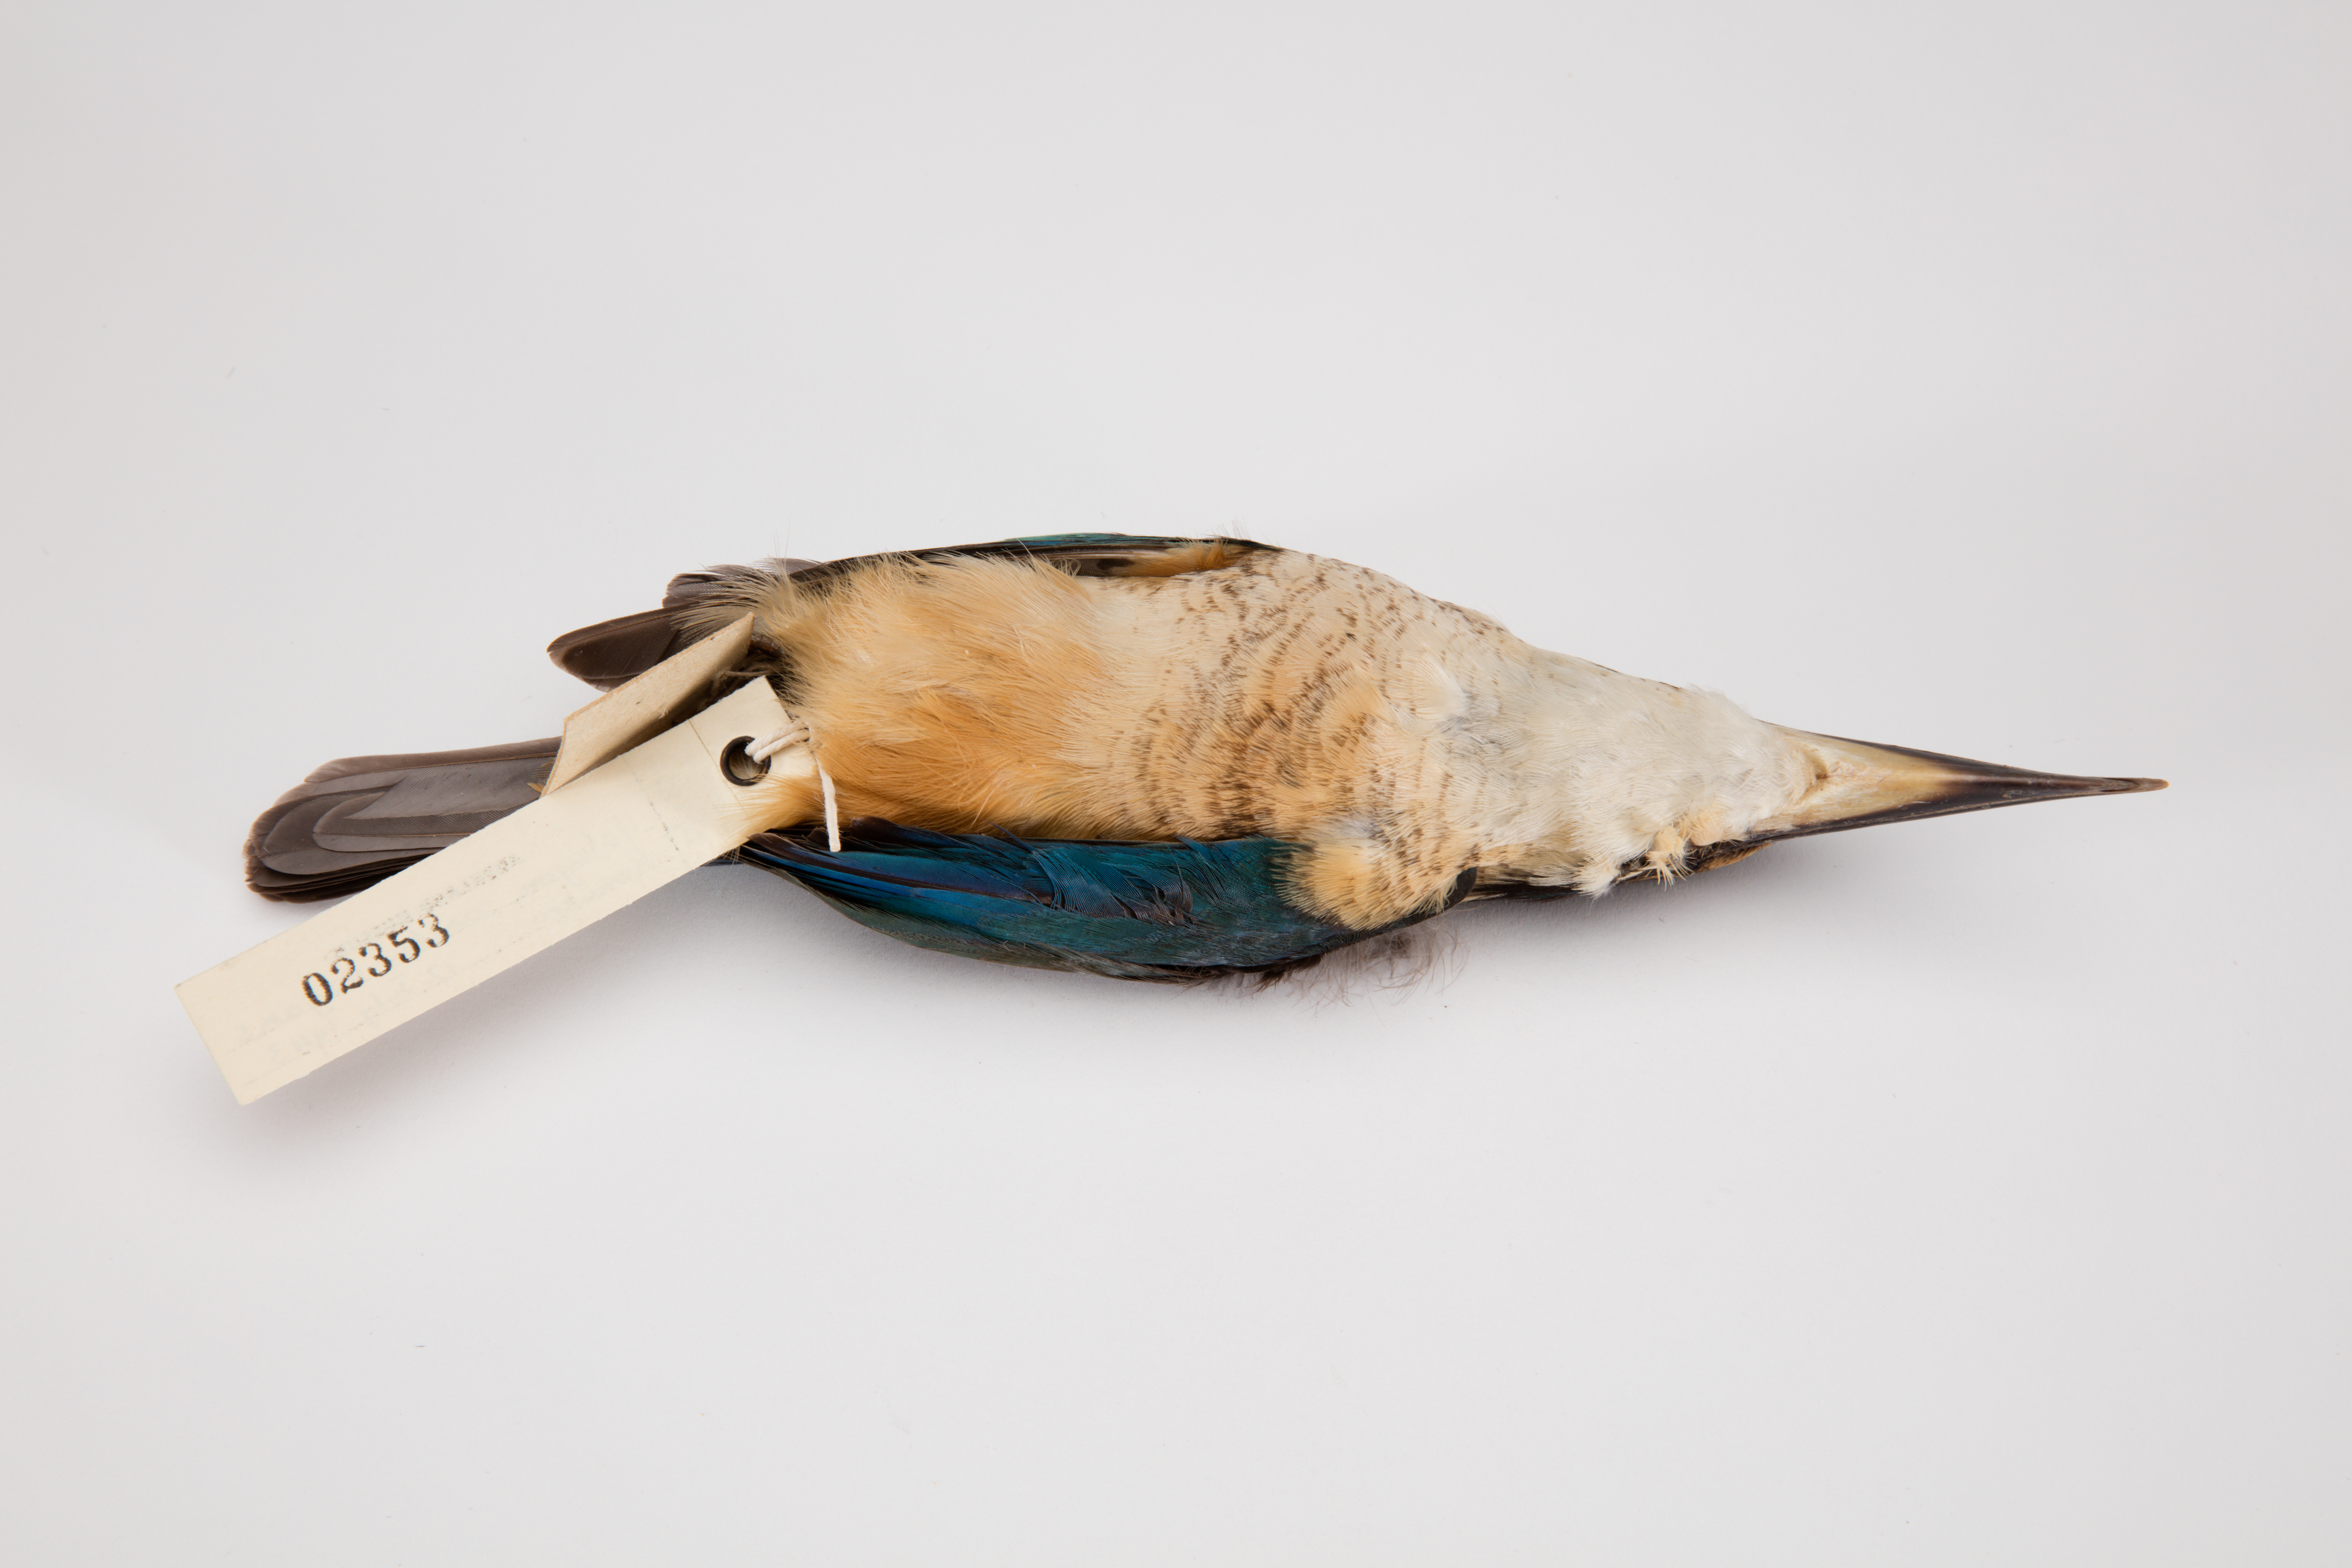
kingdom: Animalia
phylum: Chordata
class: Aves
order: Coraciiformes
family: Alcedinidae
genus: Todiramphus
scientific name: Todiramphus sanctus
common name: Sacred kingfisher
